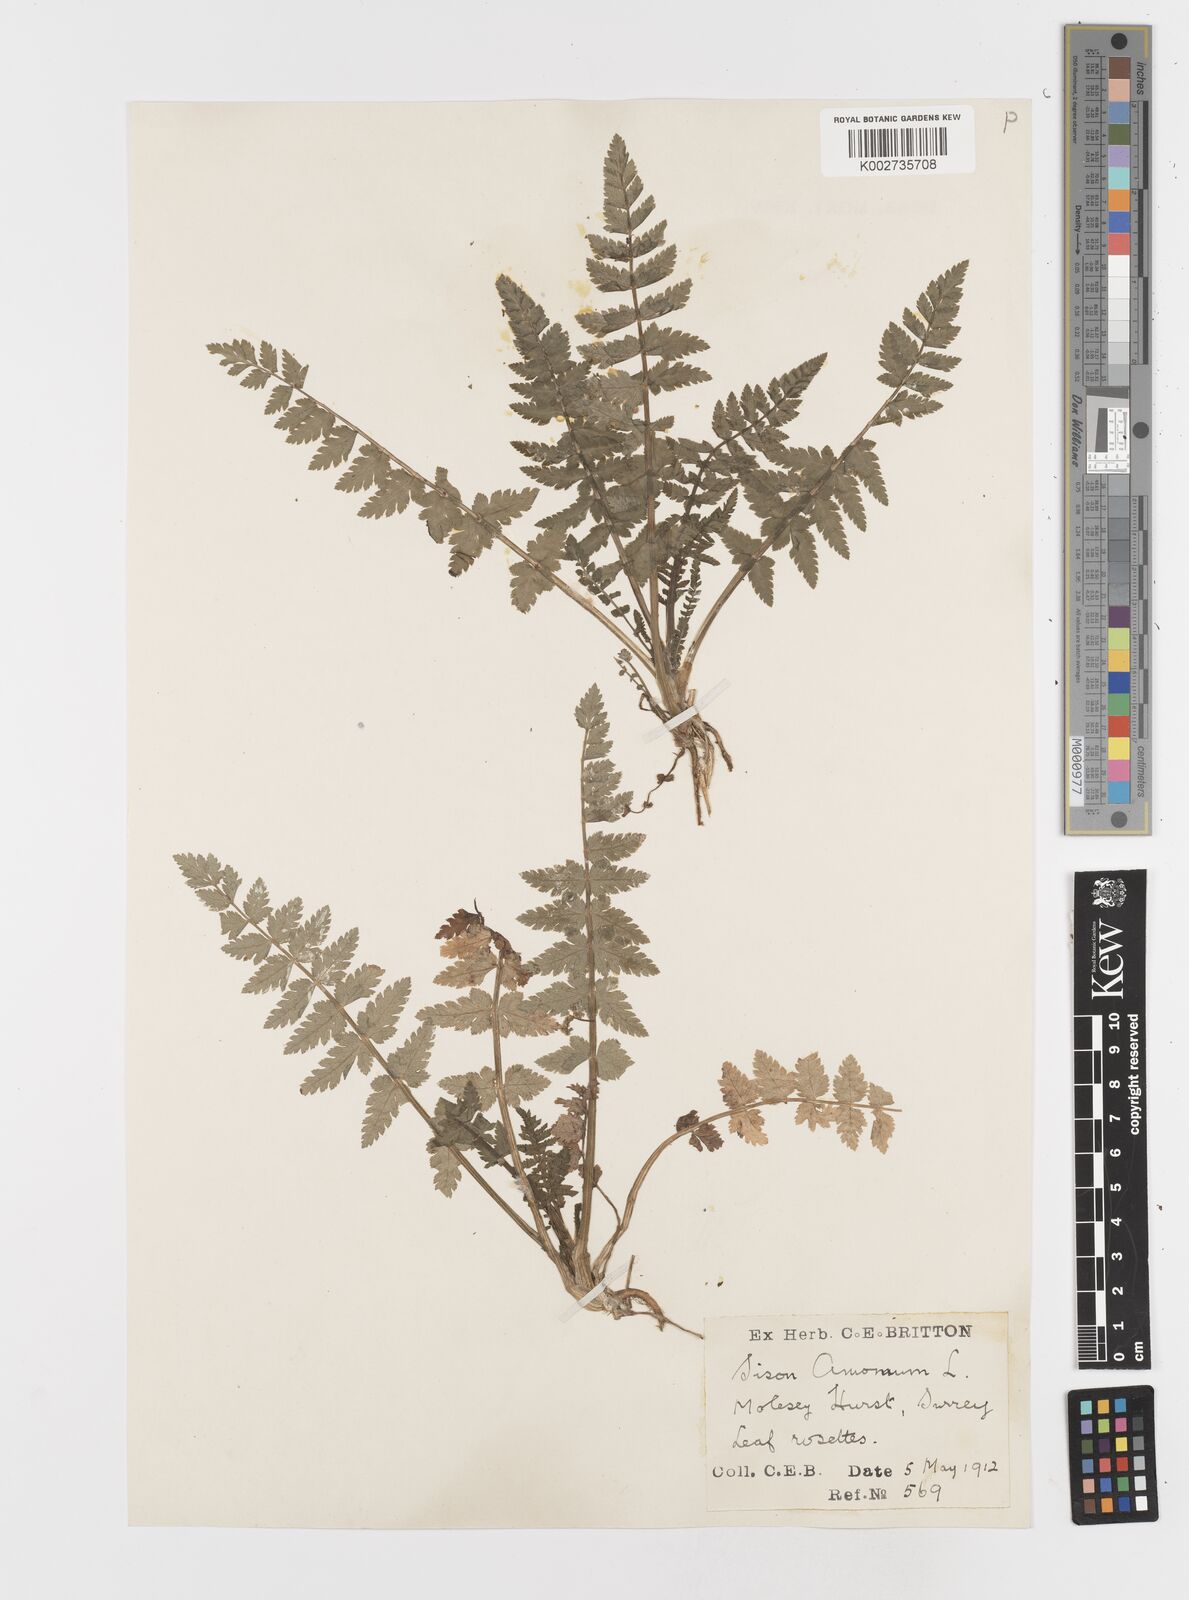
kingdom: Plantae
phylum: Tracheophyta
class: Magnoliopsida
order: Apiales
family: Apiaceae
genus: Sison
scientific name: Sison amomum
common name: Stone-parsley
